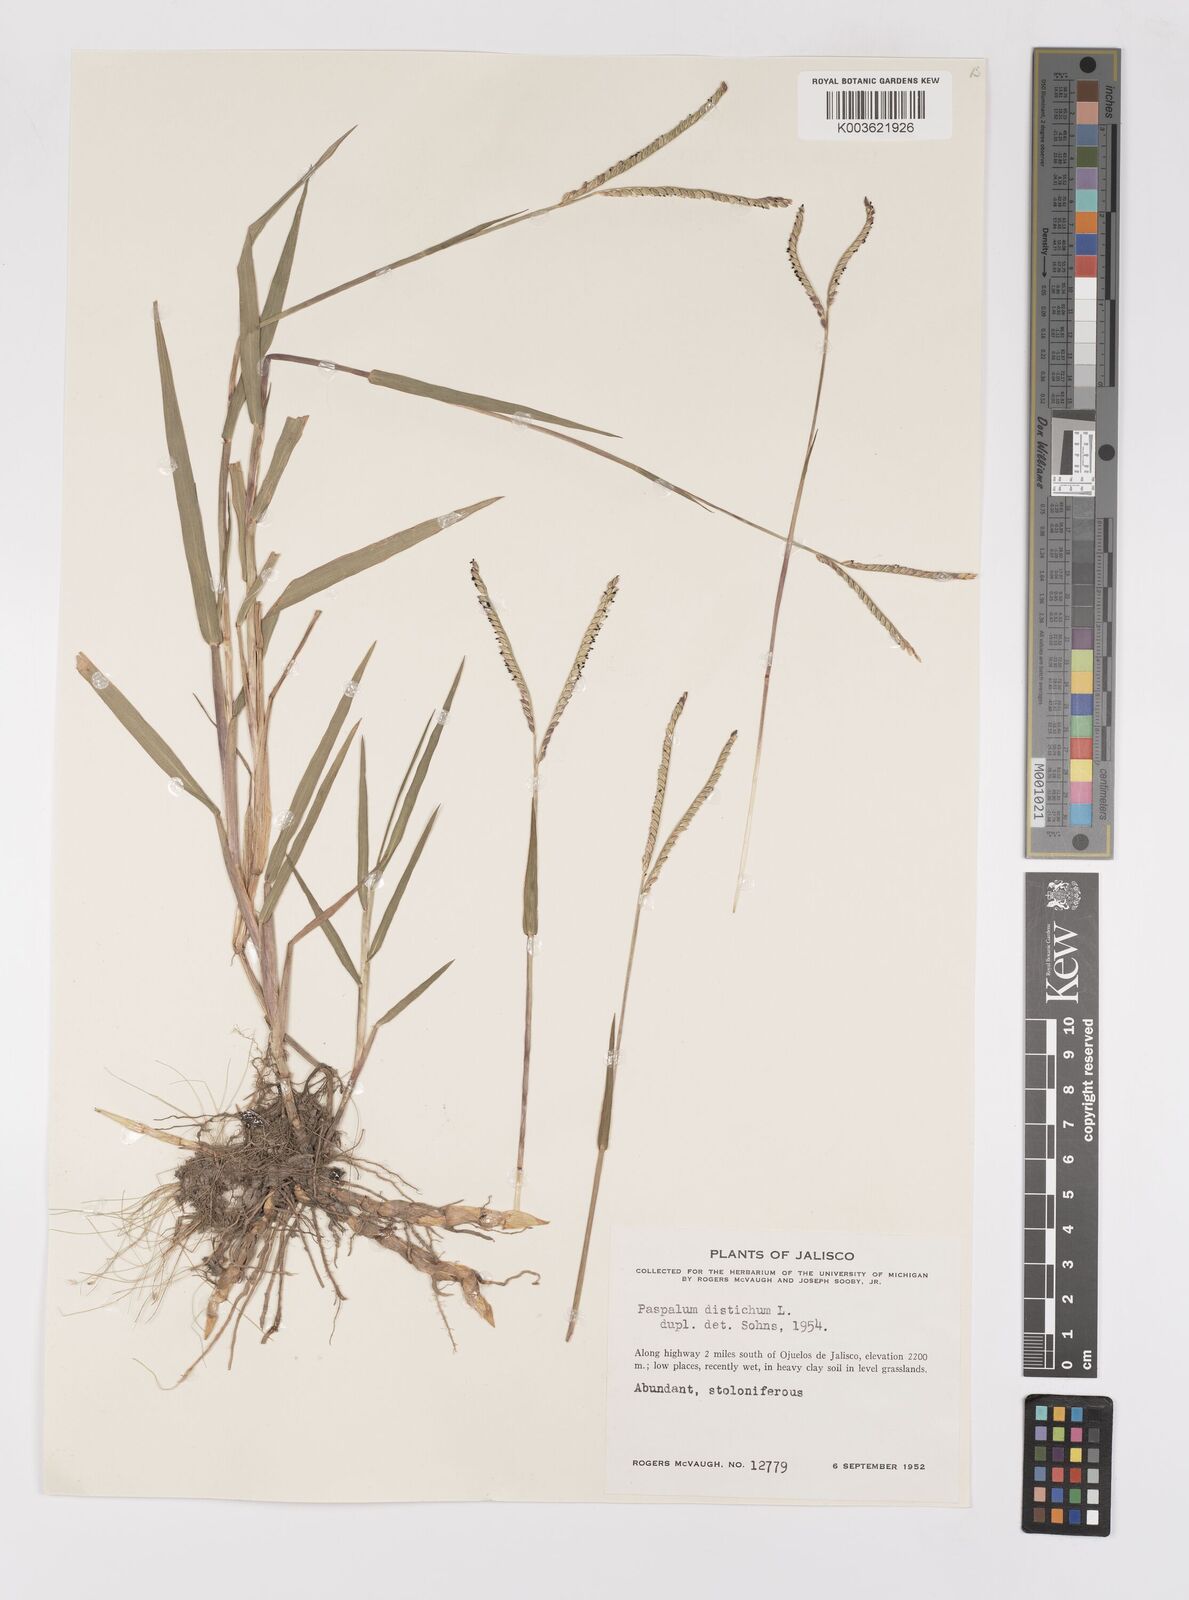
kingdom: Plantae
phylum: Tracheophyta
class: Liliopsida
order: Poales
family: Poaceae
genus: Paspalum
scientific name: Paspalum distichum
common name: Knotgrass
